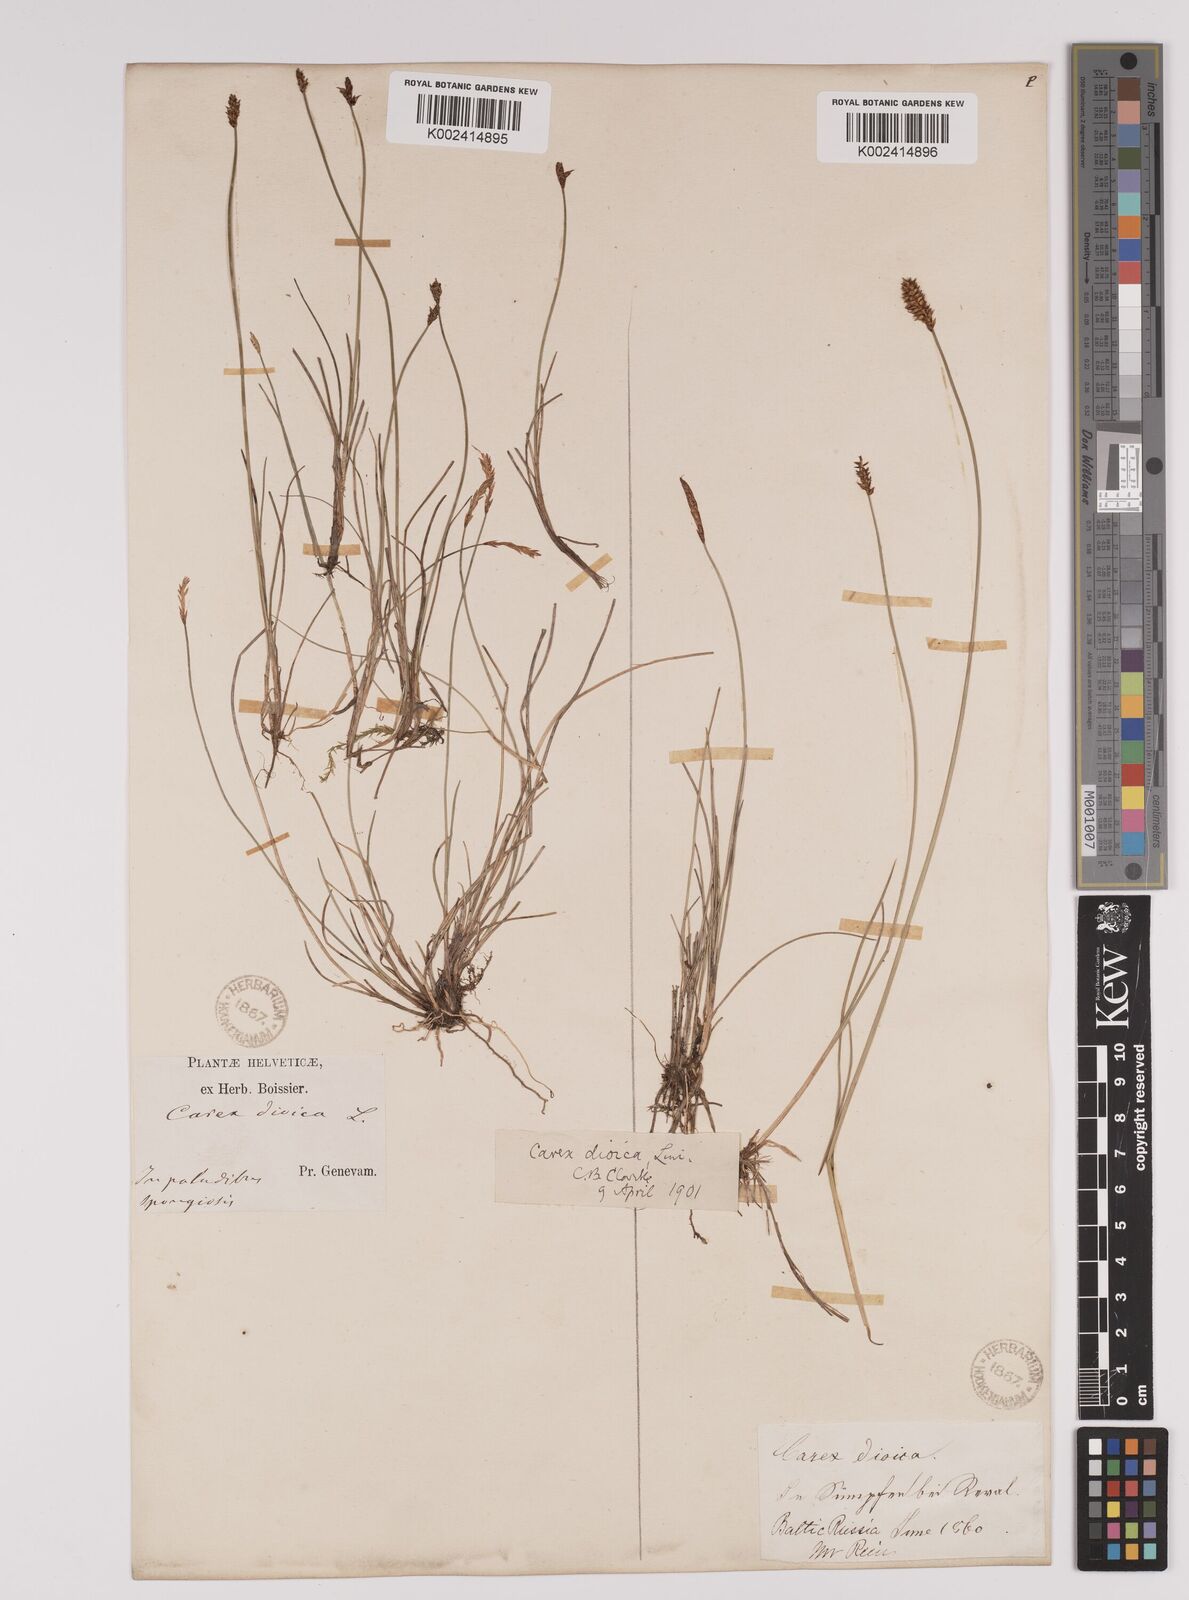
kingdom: Plantae
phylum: Tracheophyta
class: Liliopsida
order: Poales
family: Cyperaceae
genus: Carex
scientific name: Carex dioica
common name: Dioecious sedge
